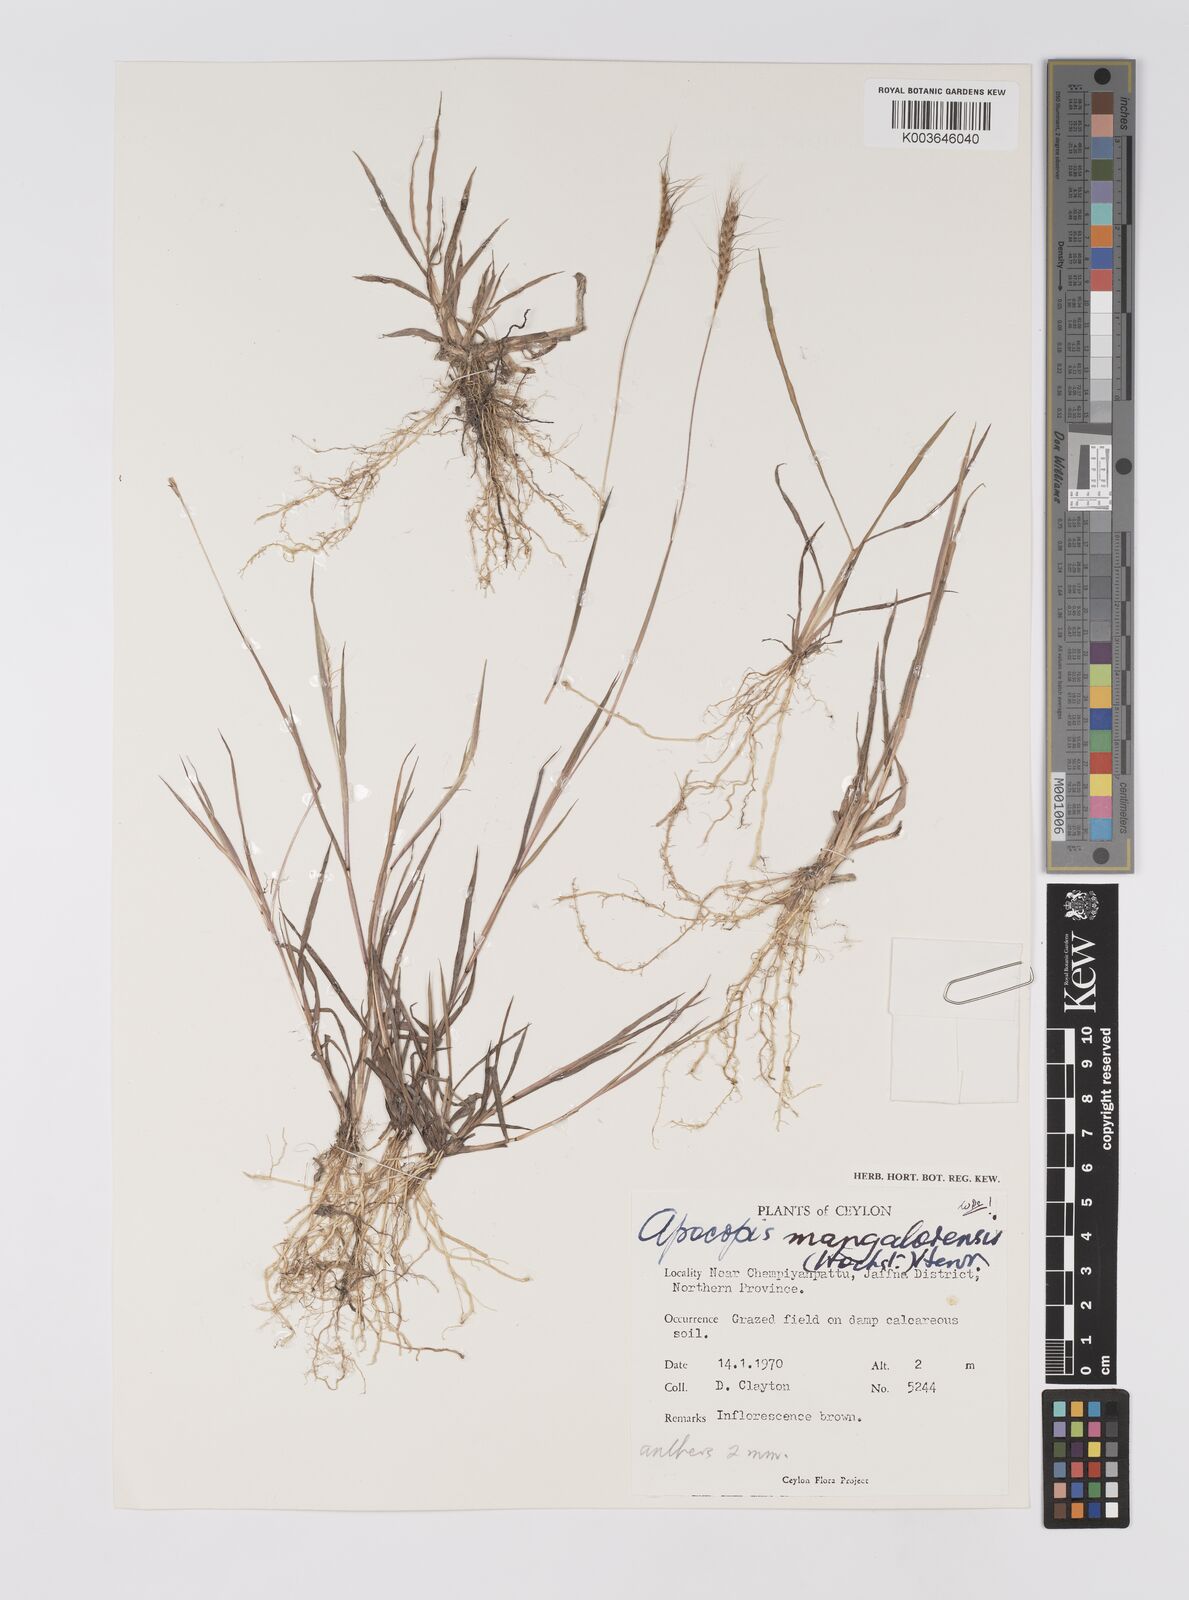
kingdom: Plantae
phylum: Tracheophyta
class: Liliopsida
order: Poales
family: Poaceae
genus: Apocopis
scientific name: Apocopis mangalorensis
